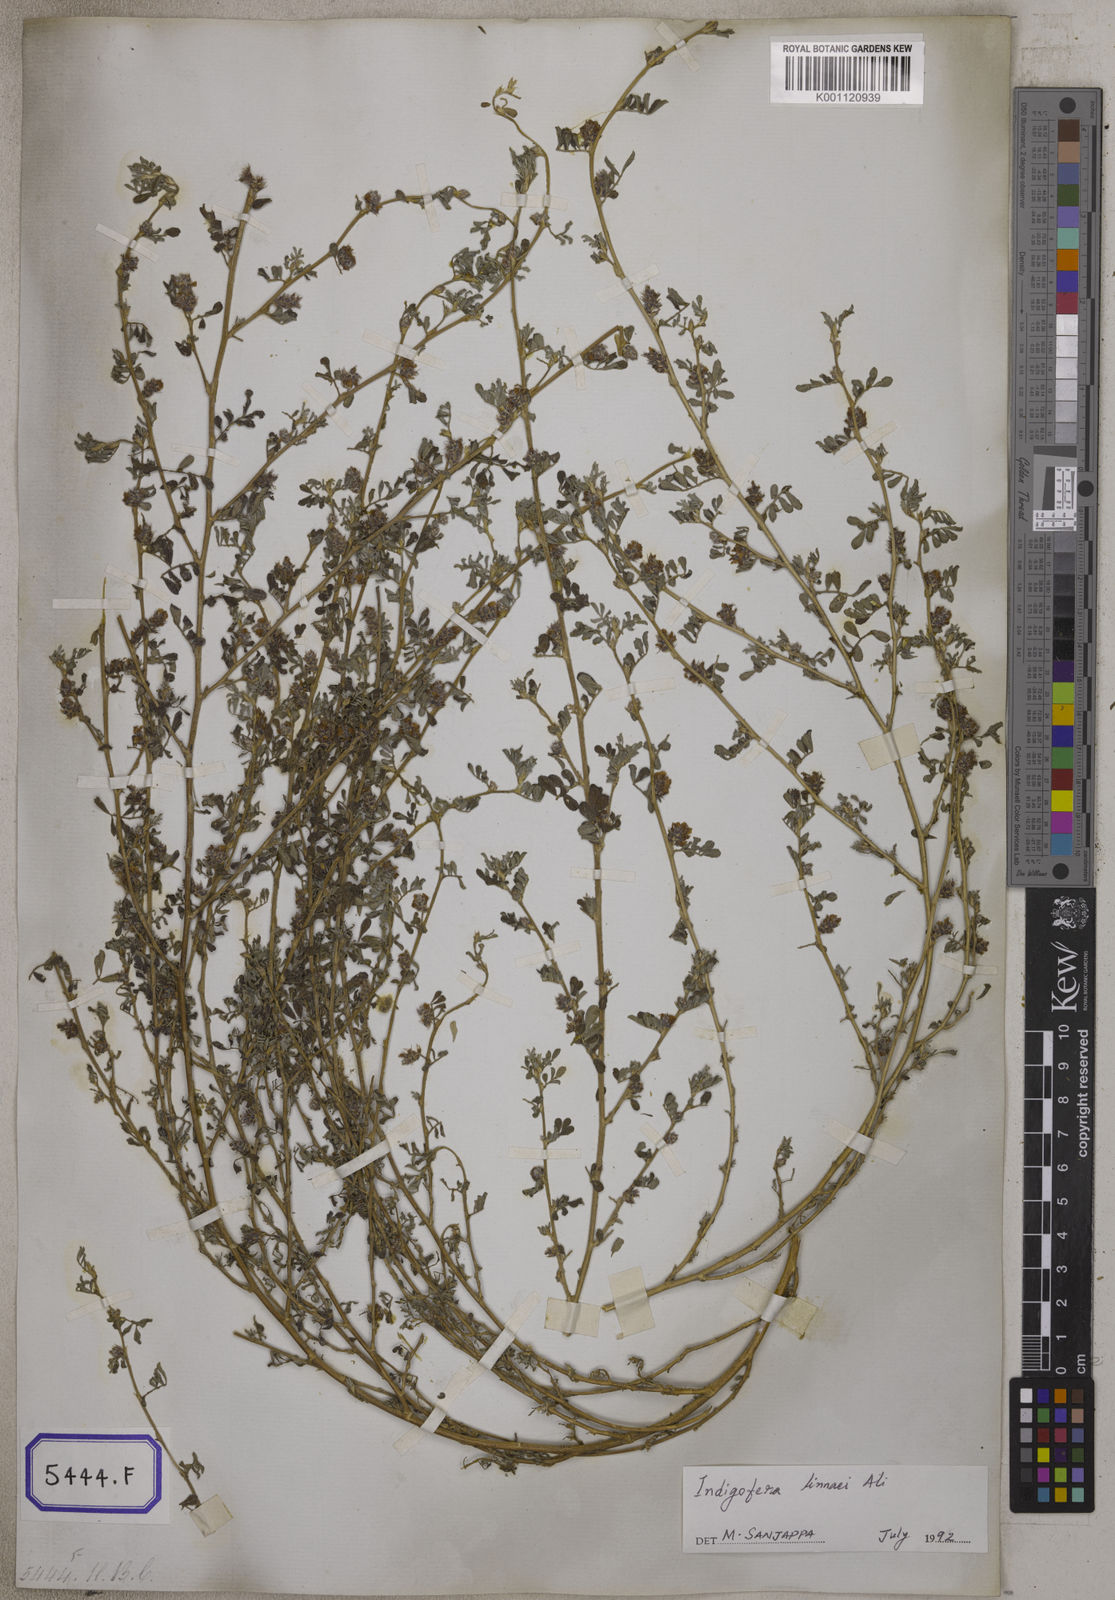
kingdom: Plantae
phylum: Tracheophyta
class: Magnoliopsida
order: Fabales
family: Fabaceae
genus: Indigofera
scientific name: Indigofera linnaei
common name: Nine-leaf indigo
